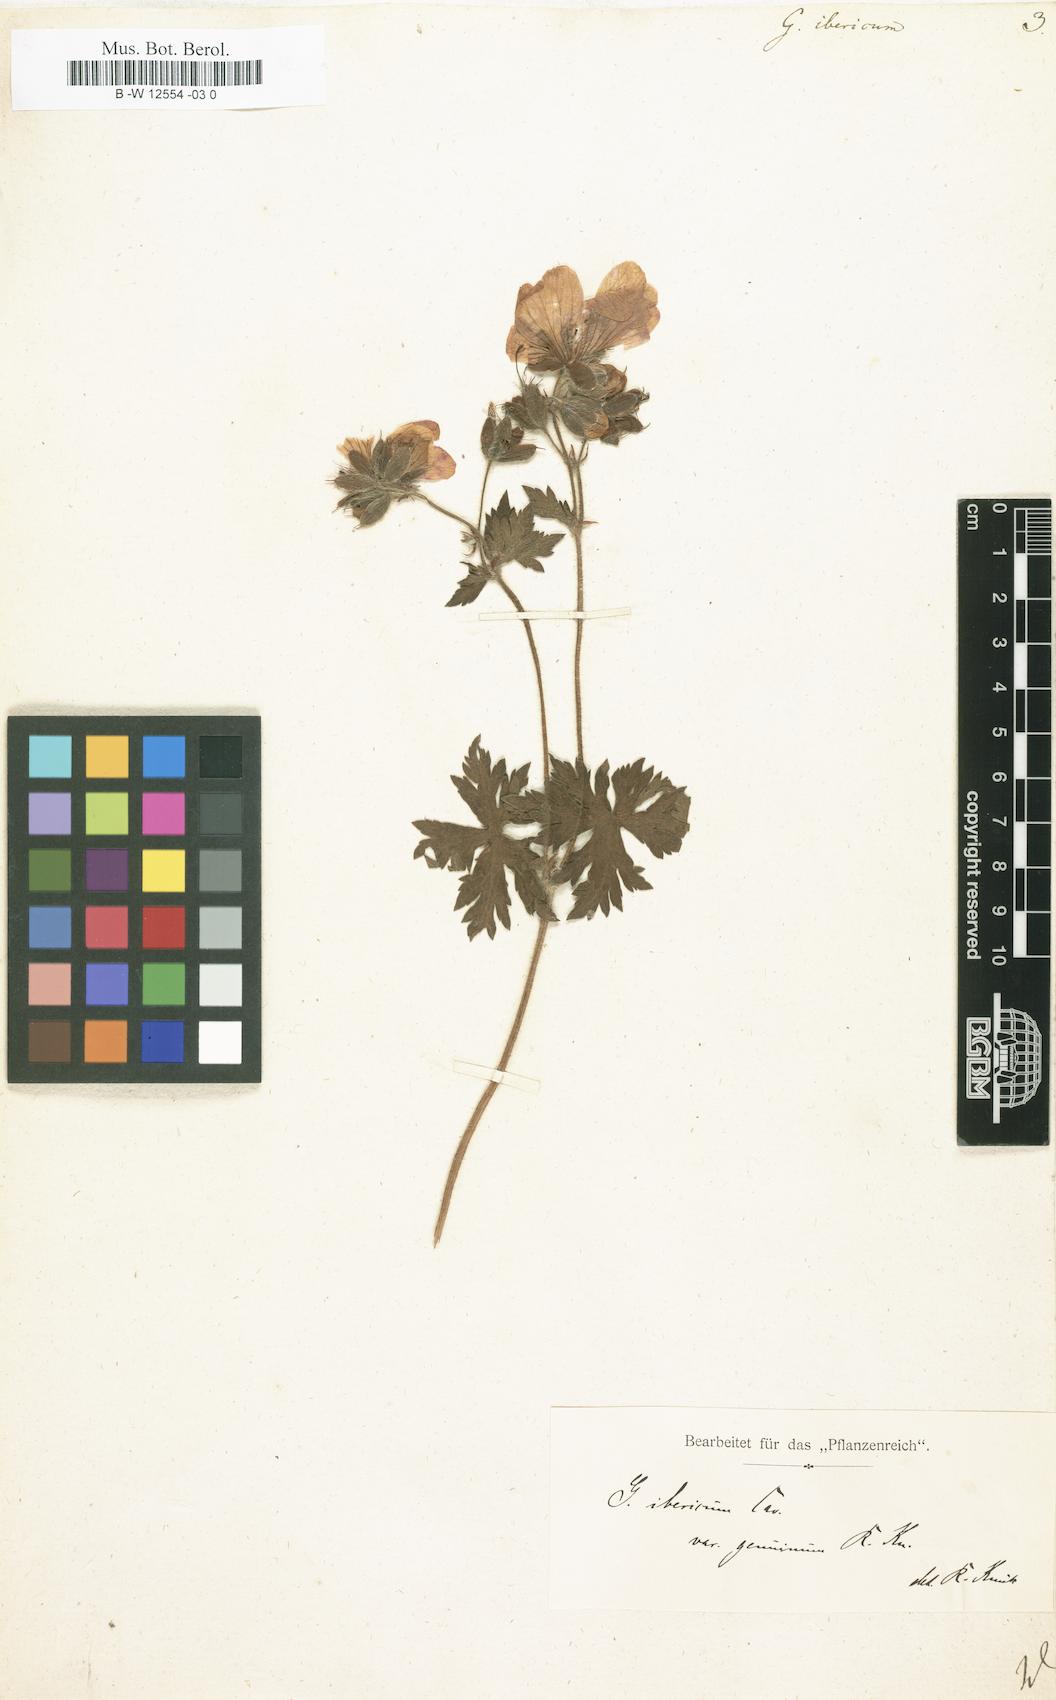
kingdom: Plantae
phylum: Tracheophyta
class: Magnoliopsida
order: Geraniales
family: Geraniaceae
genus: Geranium
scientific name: Geranium ibericum
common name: Caucasian crane's-bill
